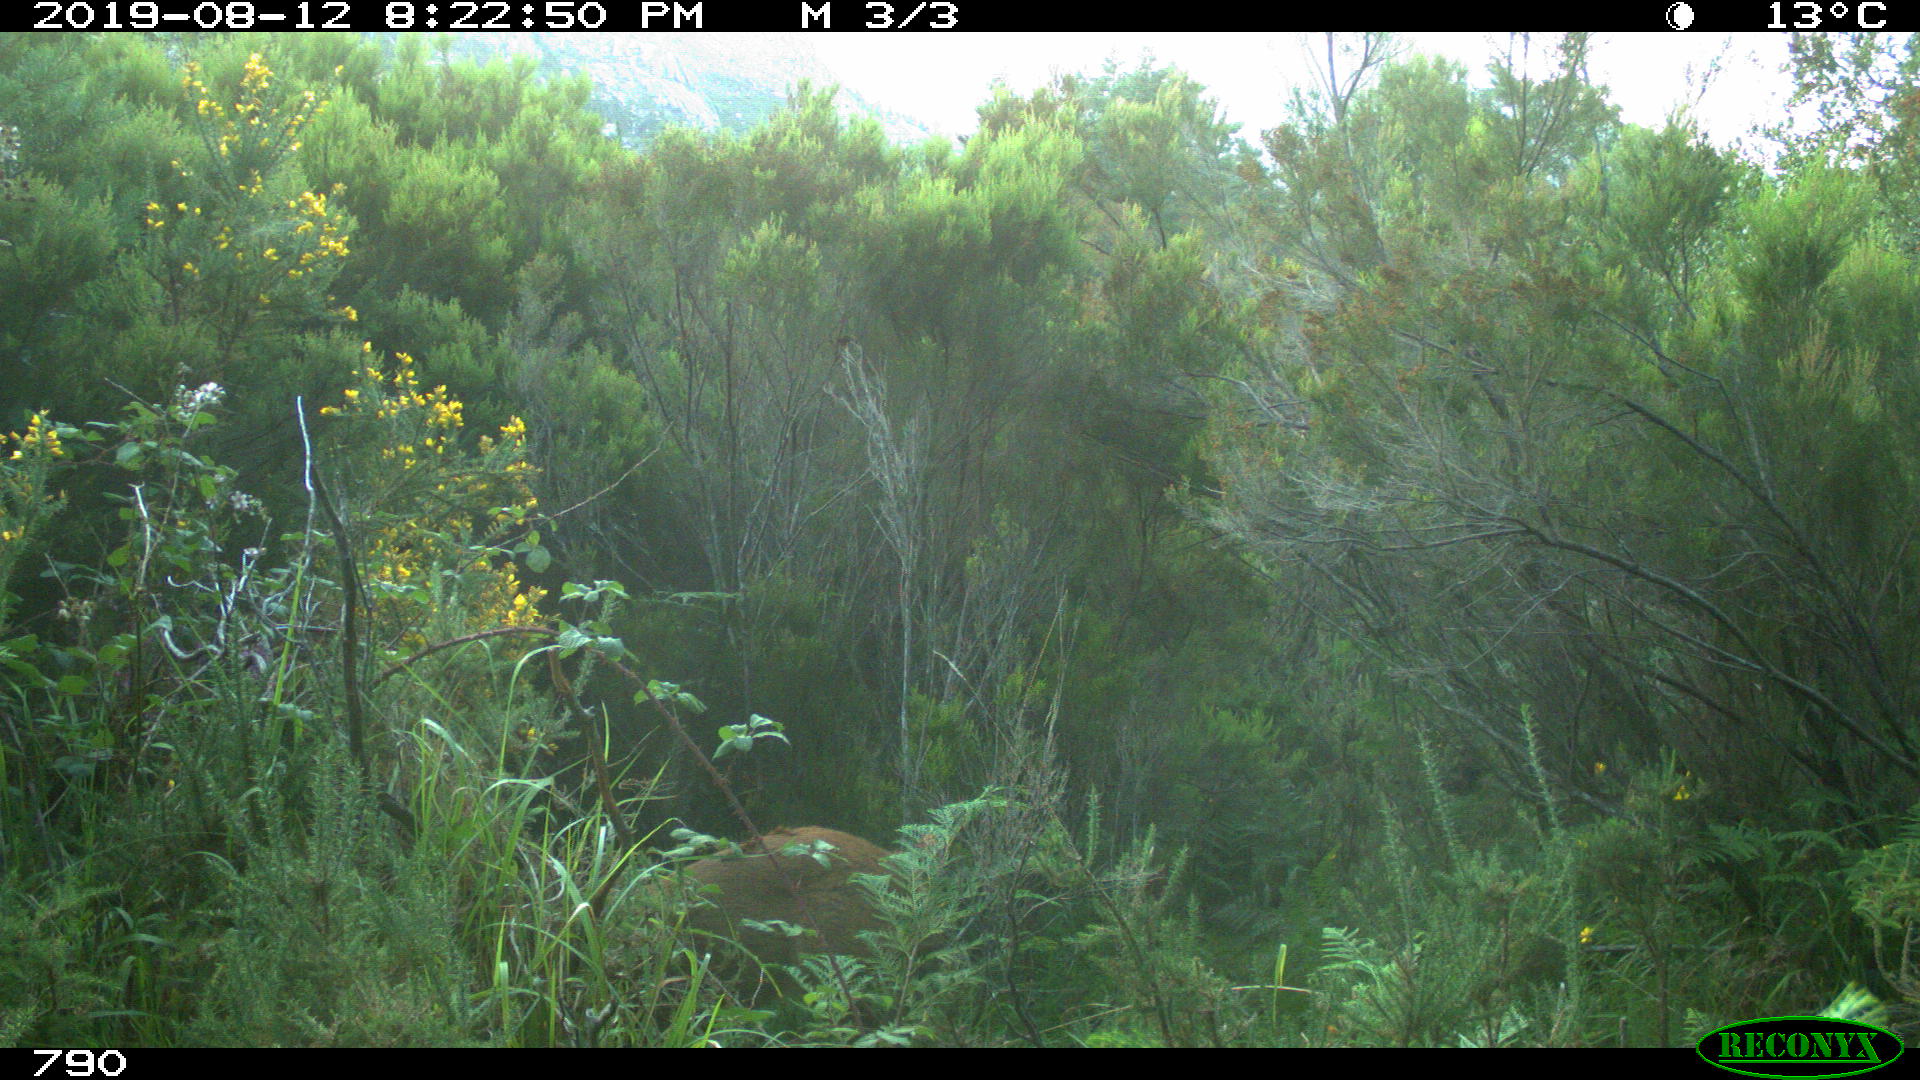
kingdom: Animalia
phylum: Chordata
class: Mammalia
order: Artiodactyla
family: Cervidae
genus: Capreolus
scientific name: Capreolus capreolus
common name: Western roe deer
